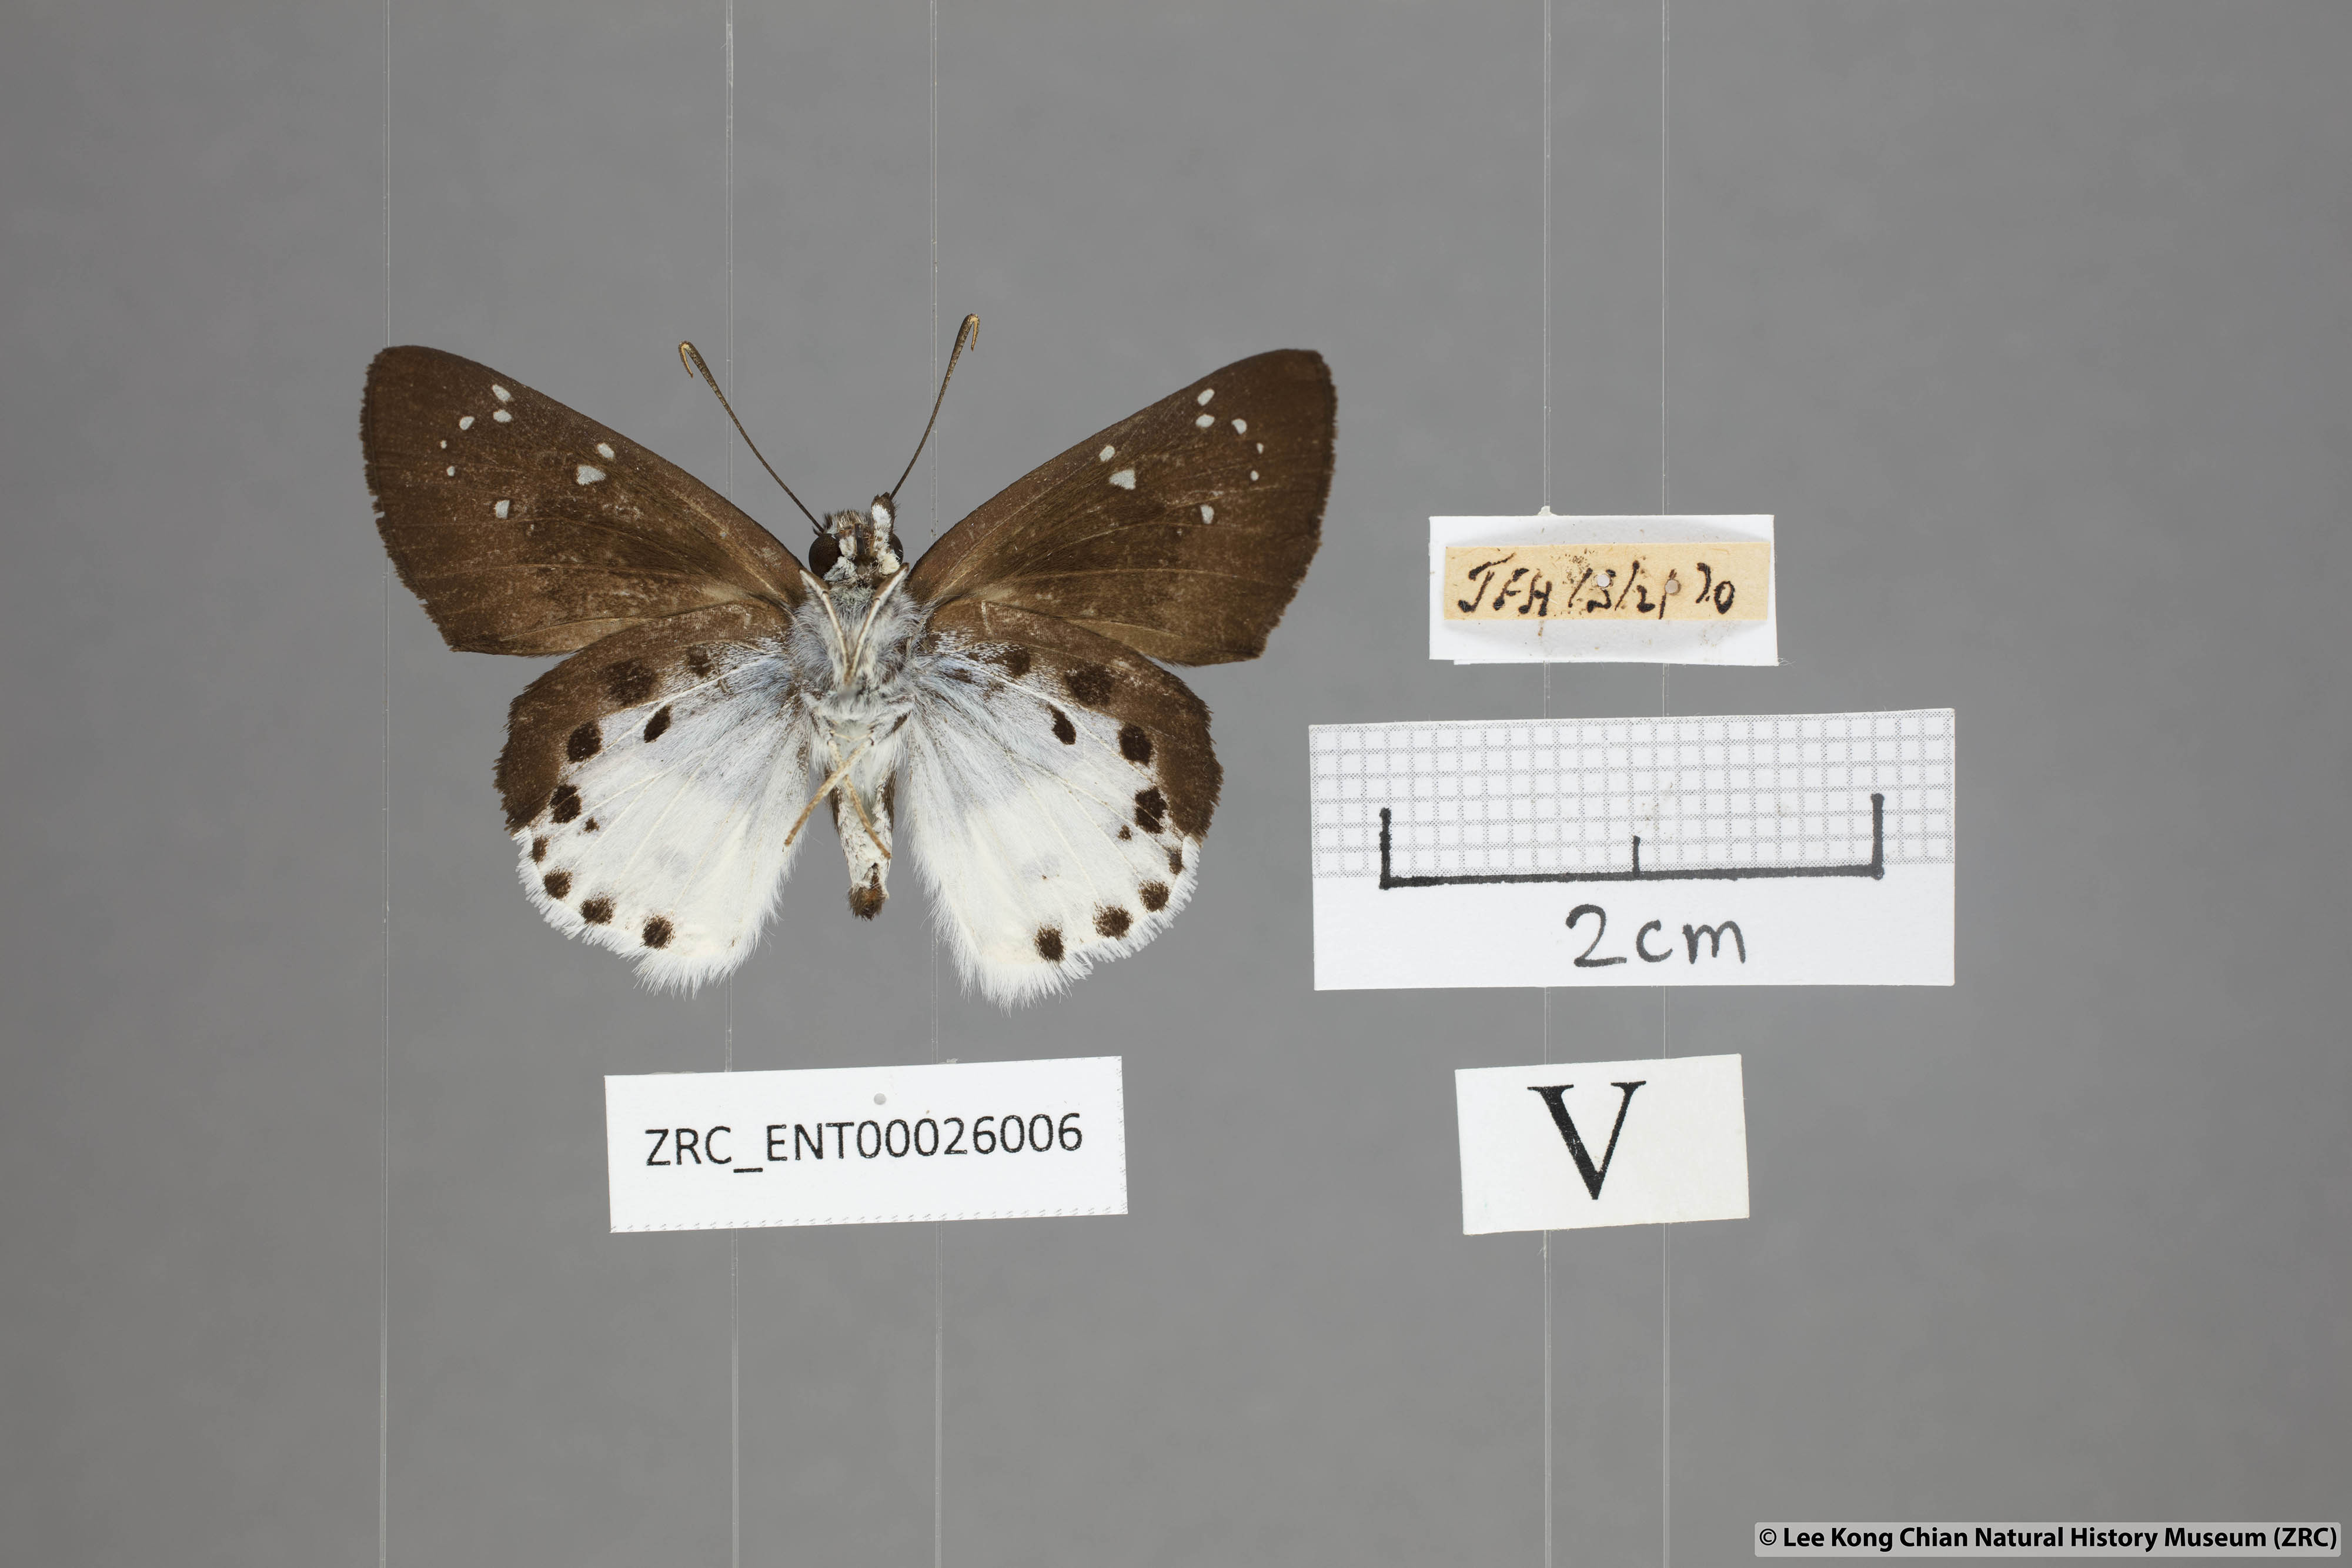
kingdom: Animalia
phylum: Arthropoda
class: Insecta
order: Lepidoptera
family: Hesperiidae
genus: Tagiades
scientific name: Tagiades menaka
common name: Dark-edged snow flat
